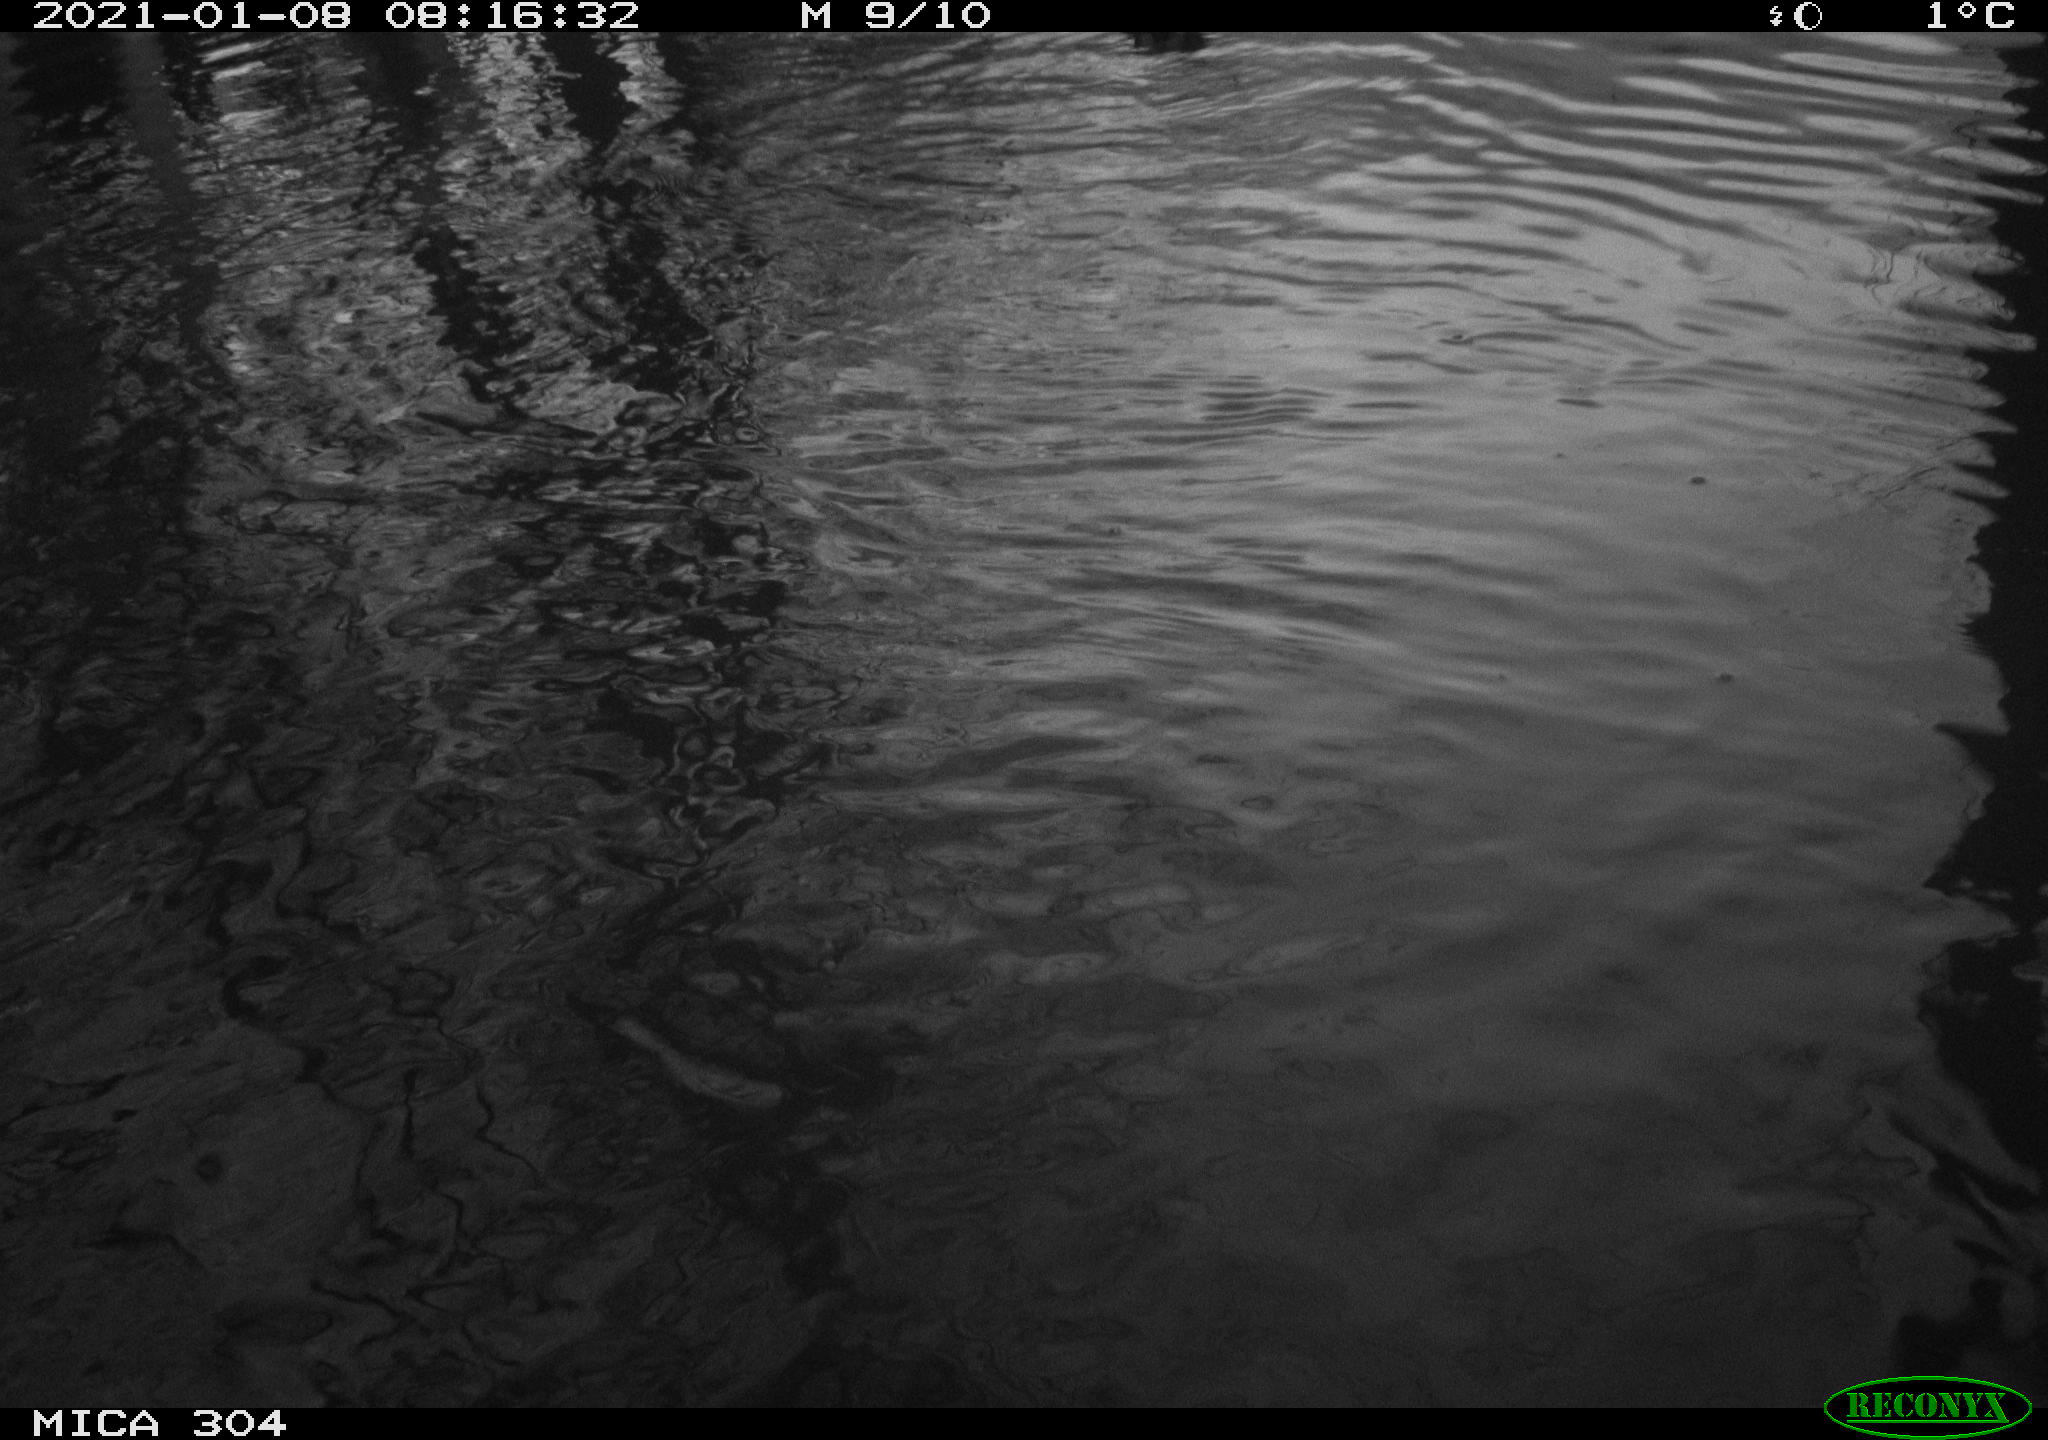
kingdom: Animalia
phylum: Chordata
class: Aves
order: Gruiformes
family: Rallidae
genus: Gallinula
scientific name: Gallinula chloropus
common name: Common moorhen
